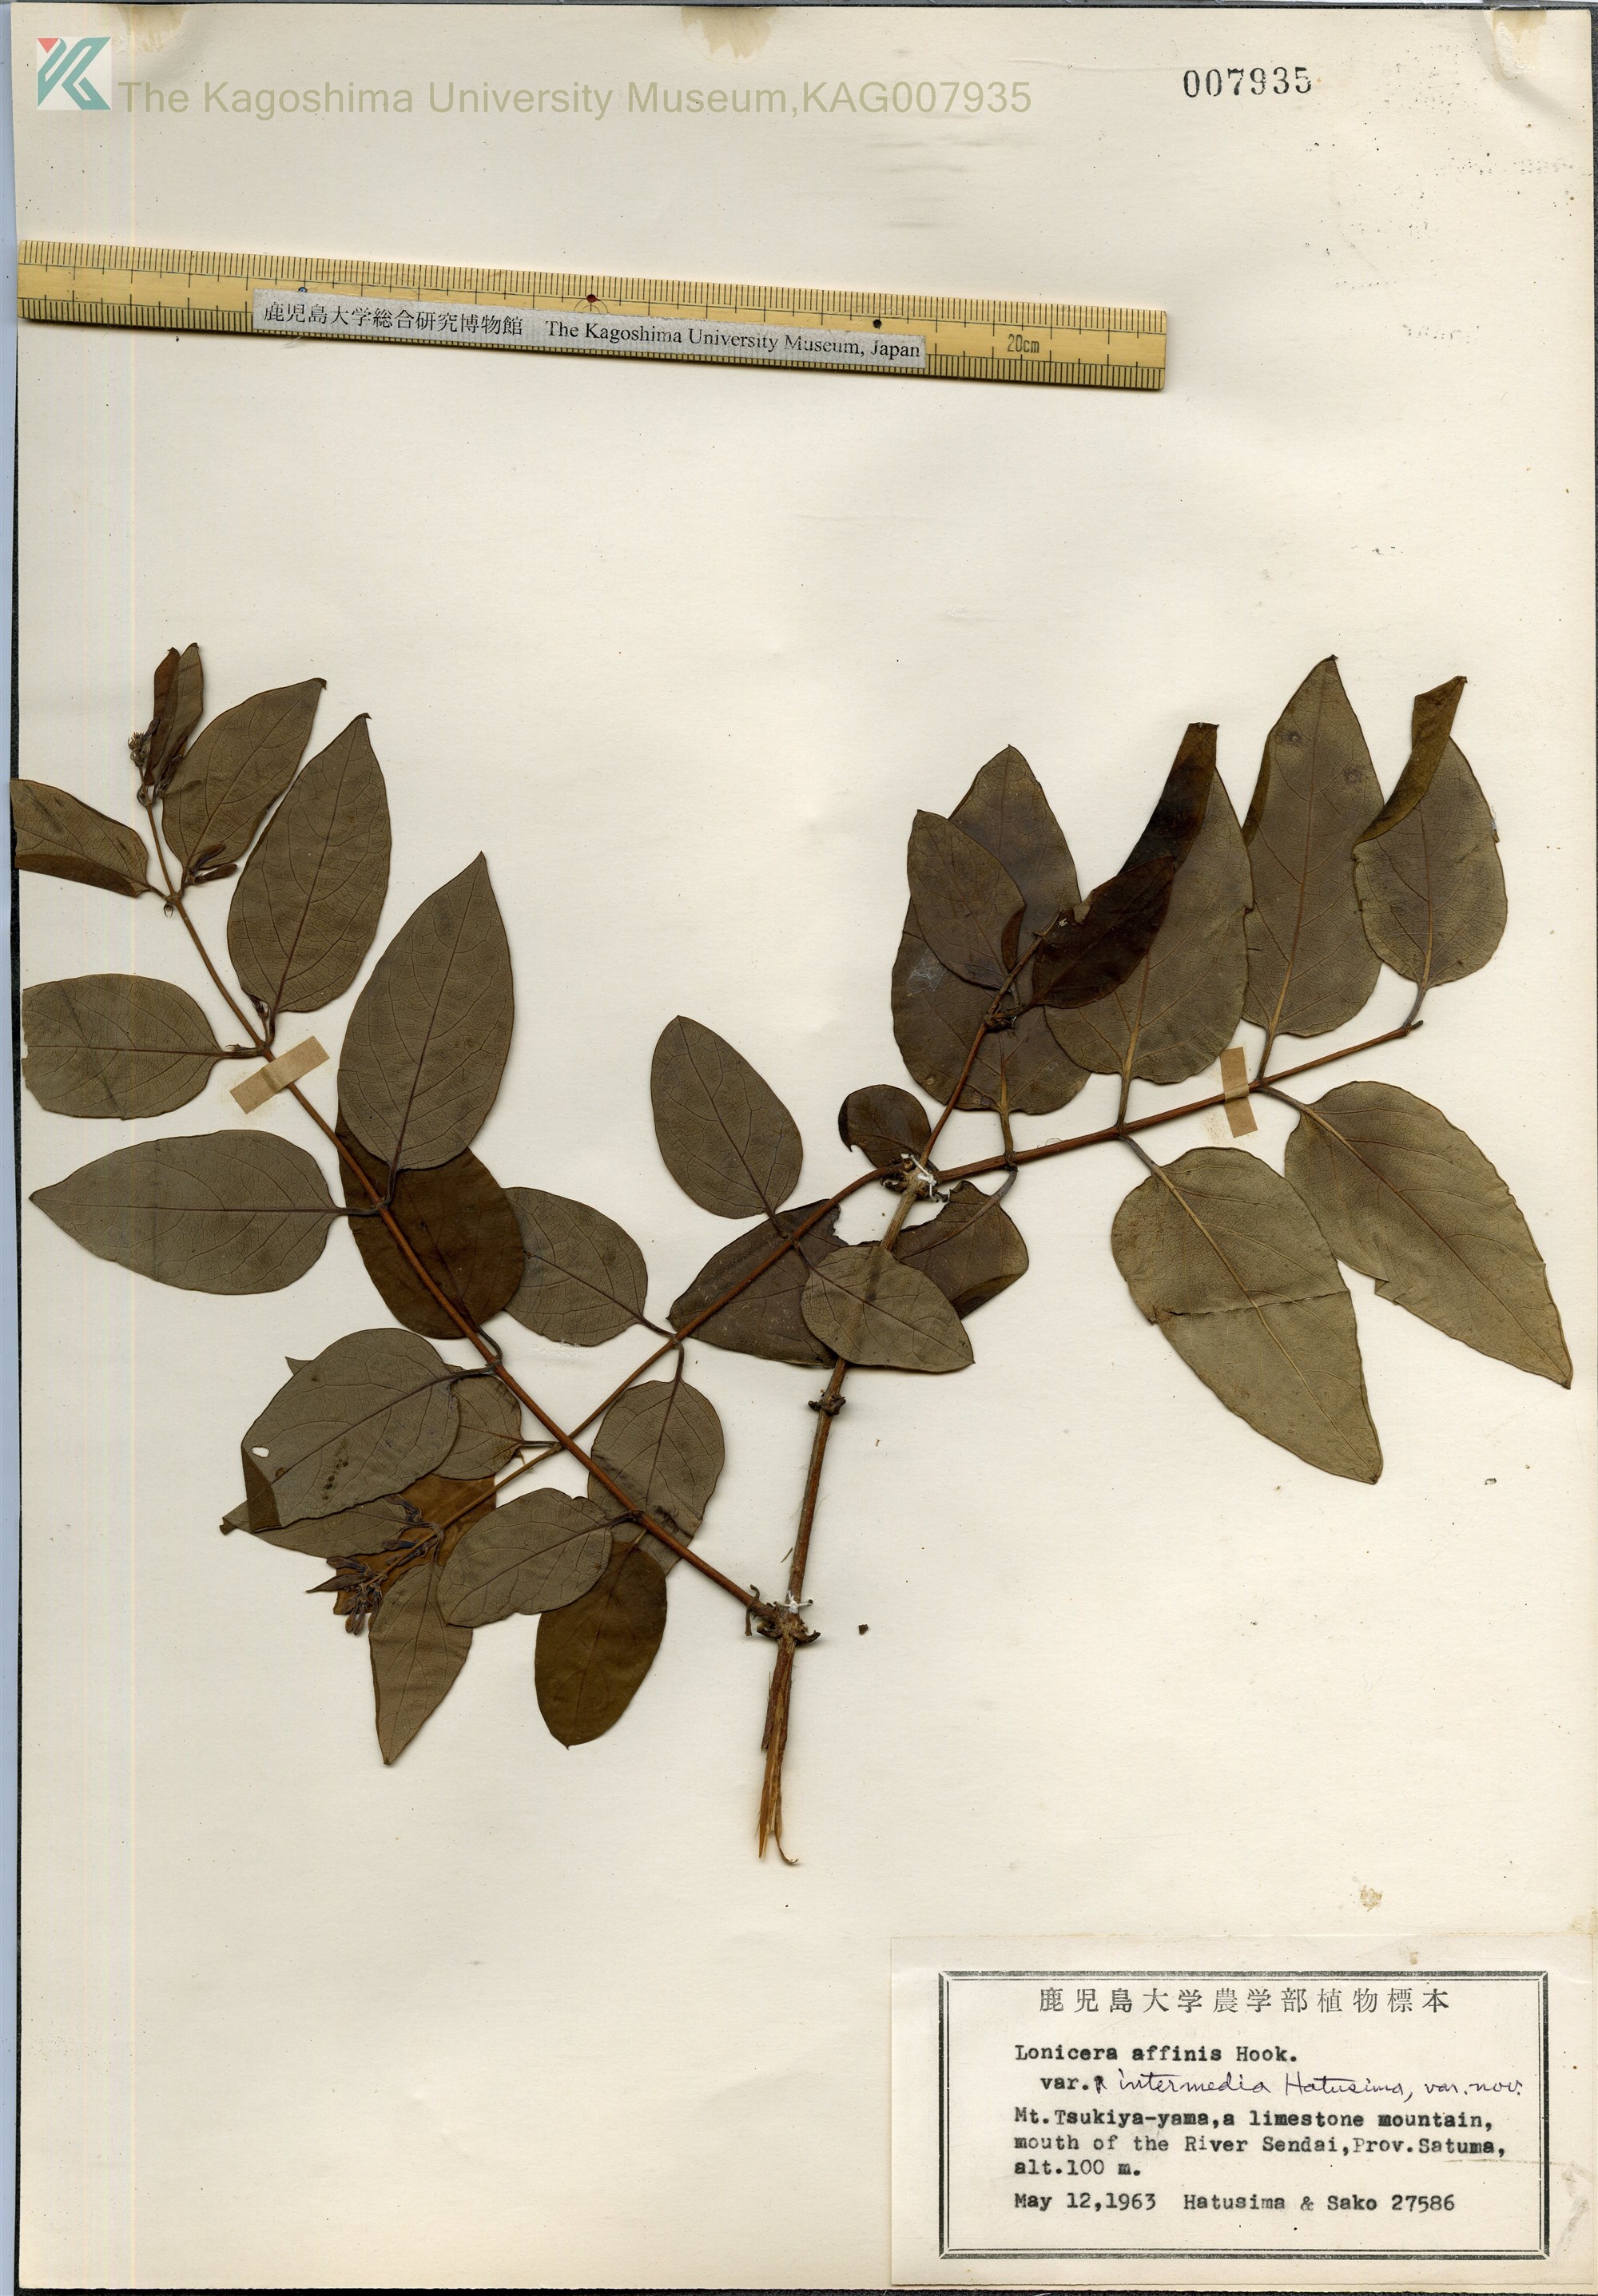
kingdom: Plantae
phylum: Tracheophyta
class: Magnoliopsida
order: Dipsacales
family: Caprifoliaceae
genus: Lonicera
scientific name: Lonicera affinis
